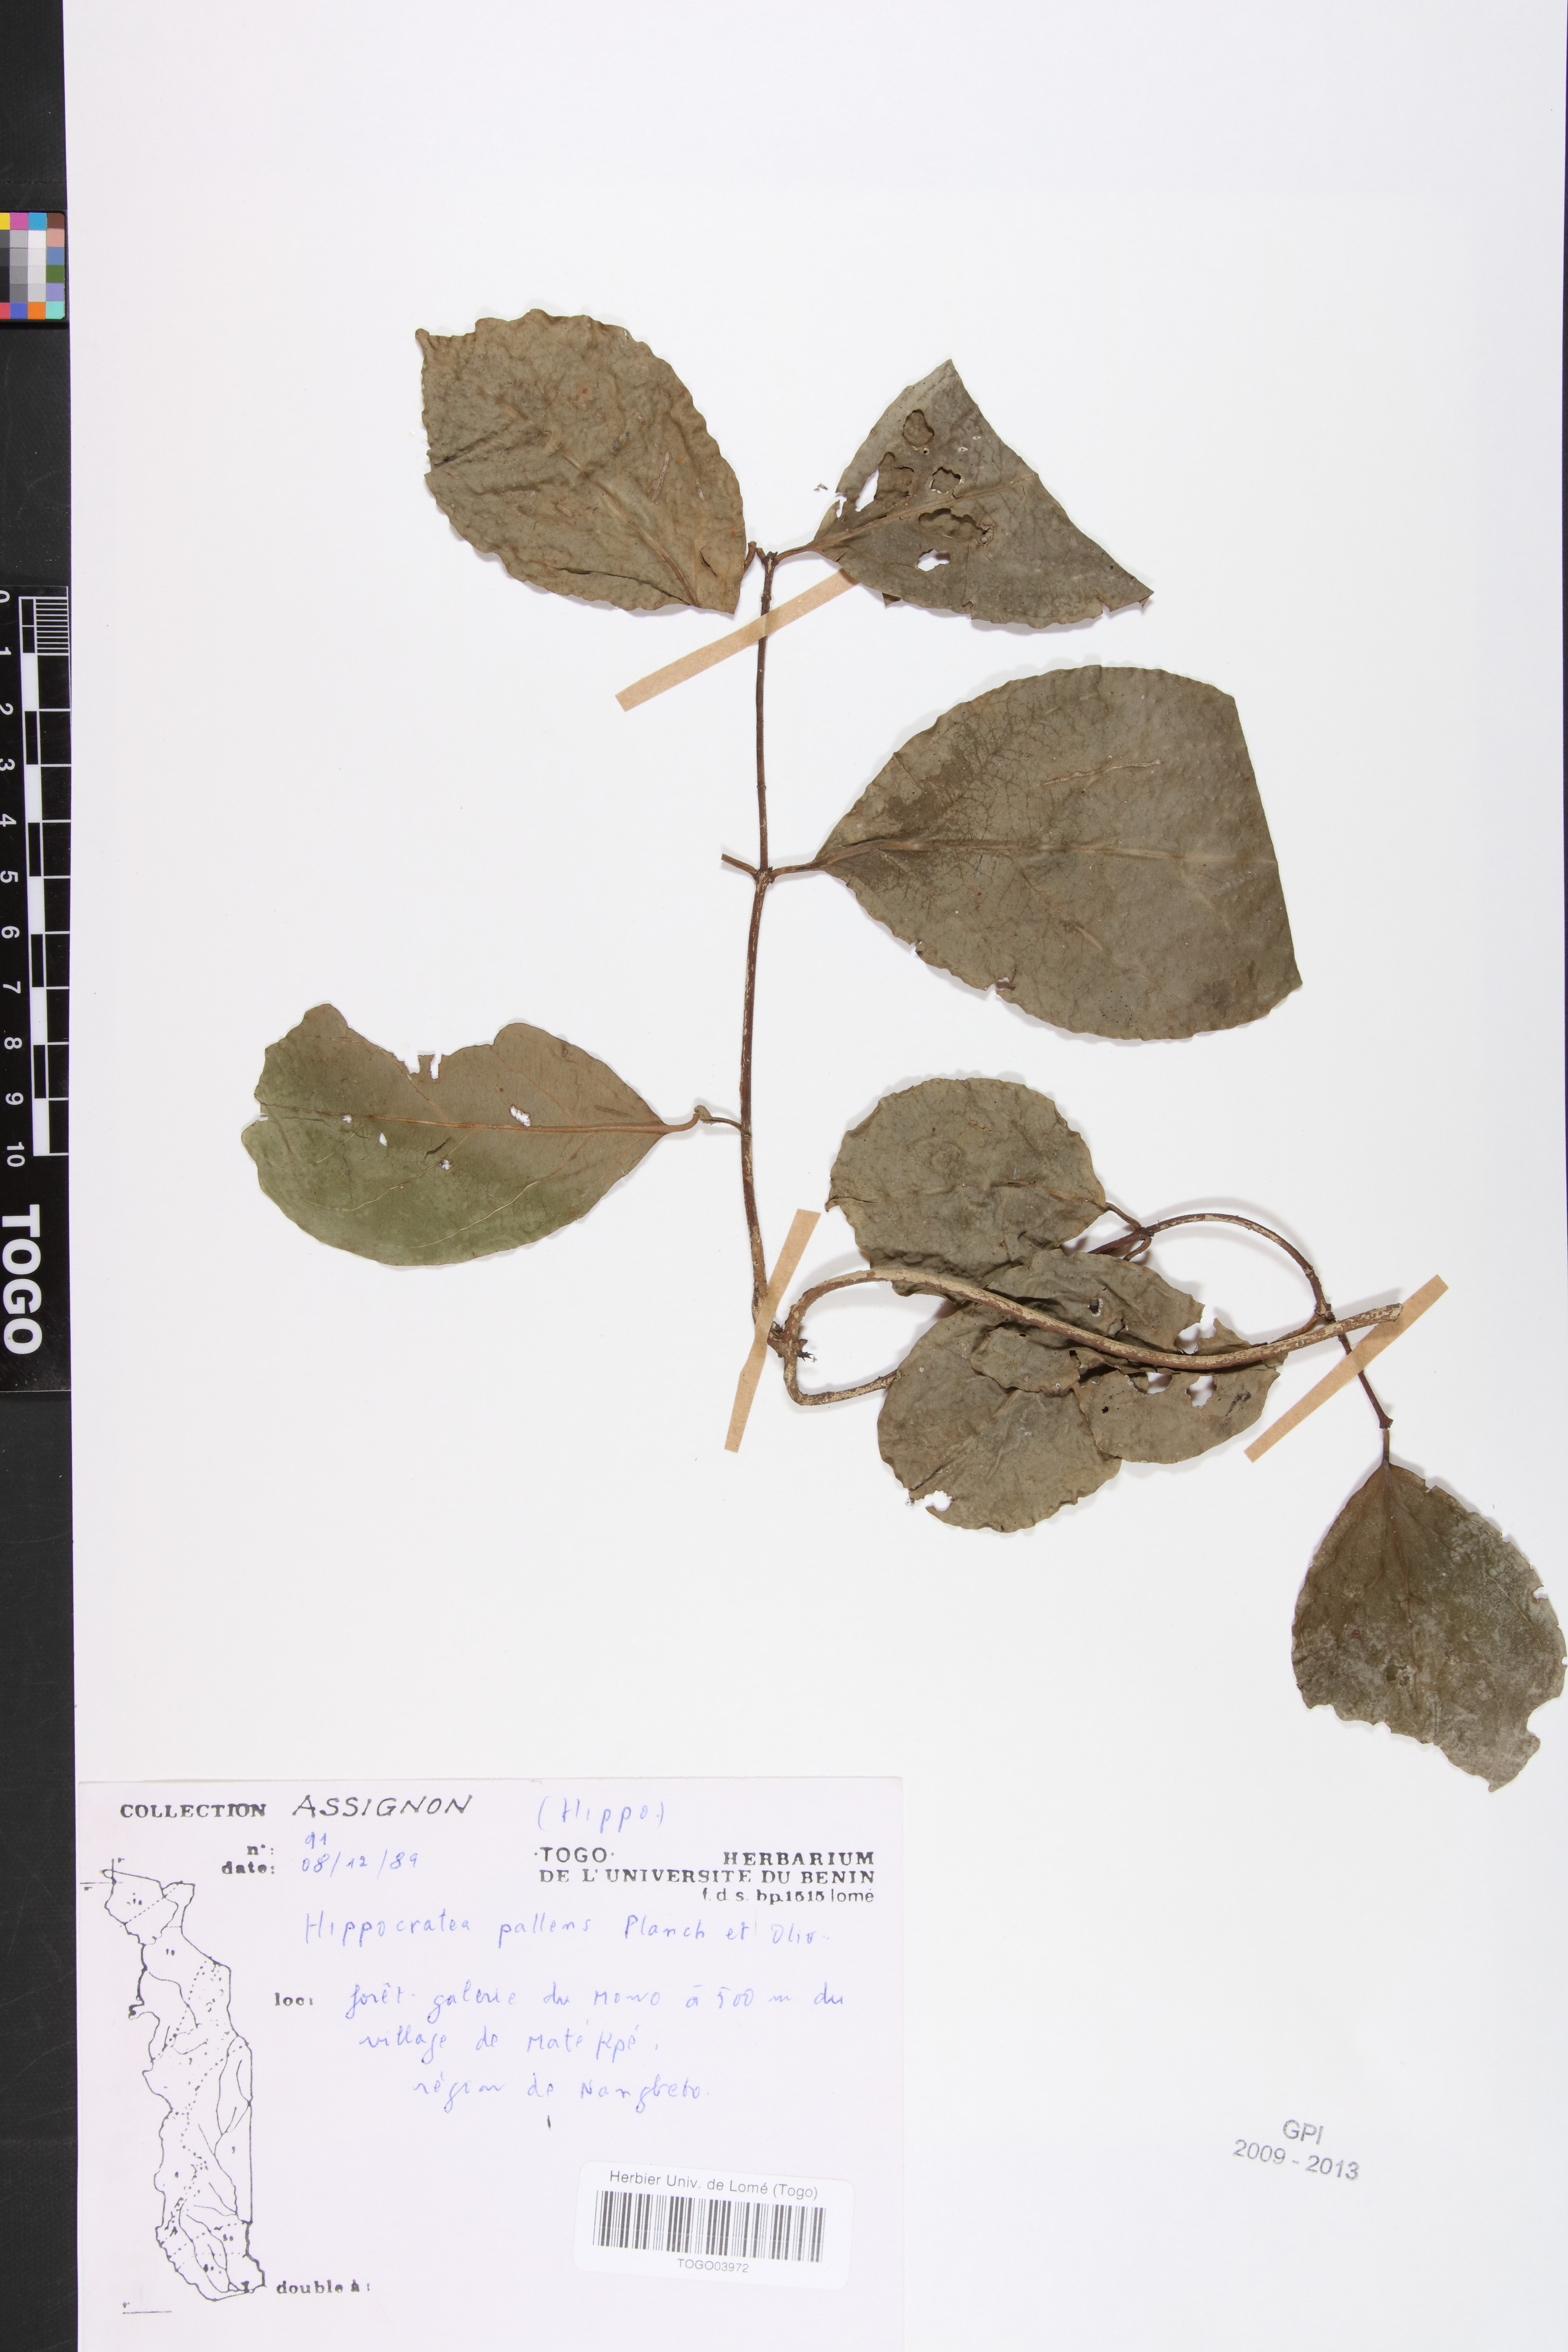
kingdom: Plantae
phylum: Tracheophyta
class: Magnoliopsida
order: Celastrales
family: Celastraceae
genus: Apodostigma
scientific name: Apodostigma pallens
